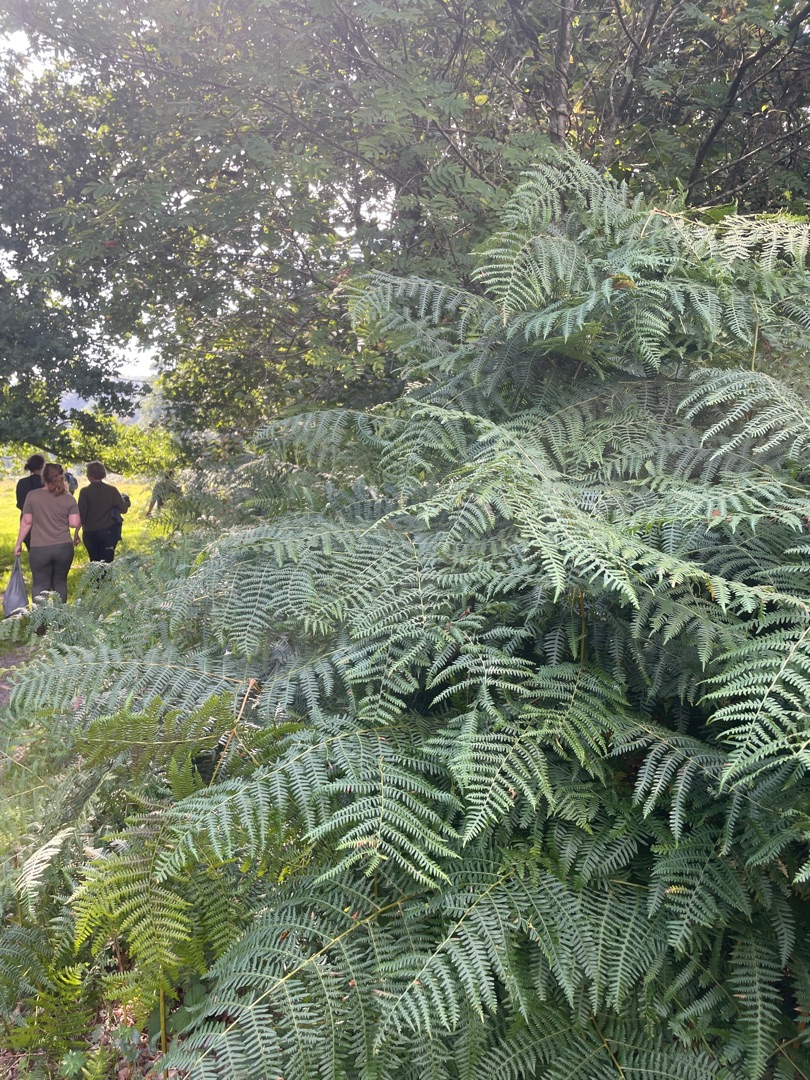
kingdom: Plantae
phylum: Tracheophyta
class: Polypodiopsida
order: Polypodiales
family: Dennstaedtiaceae
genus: Pteridium
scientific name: Pteridium aquilinum
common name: Ørnebregne
